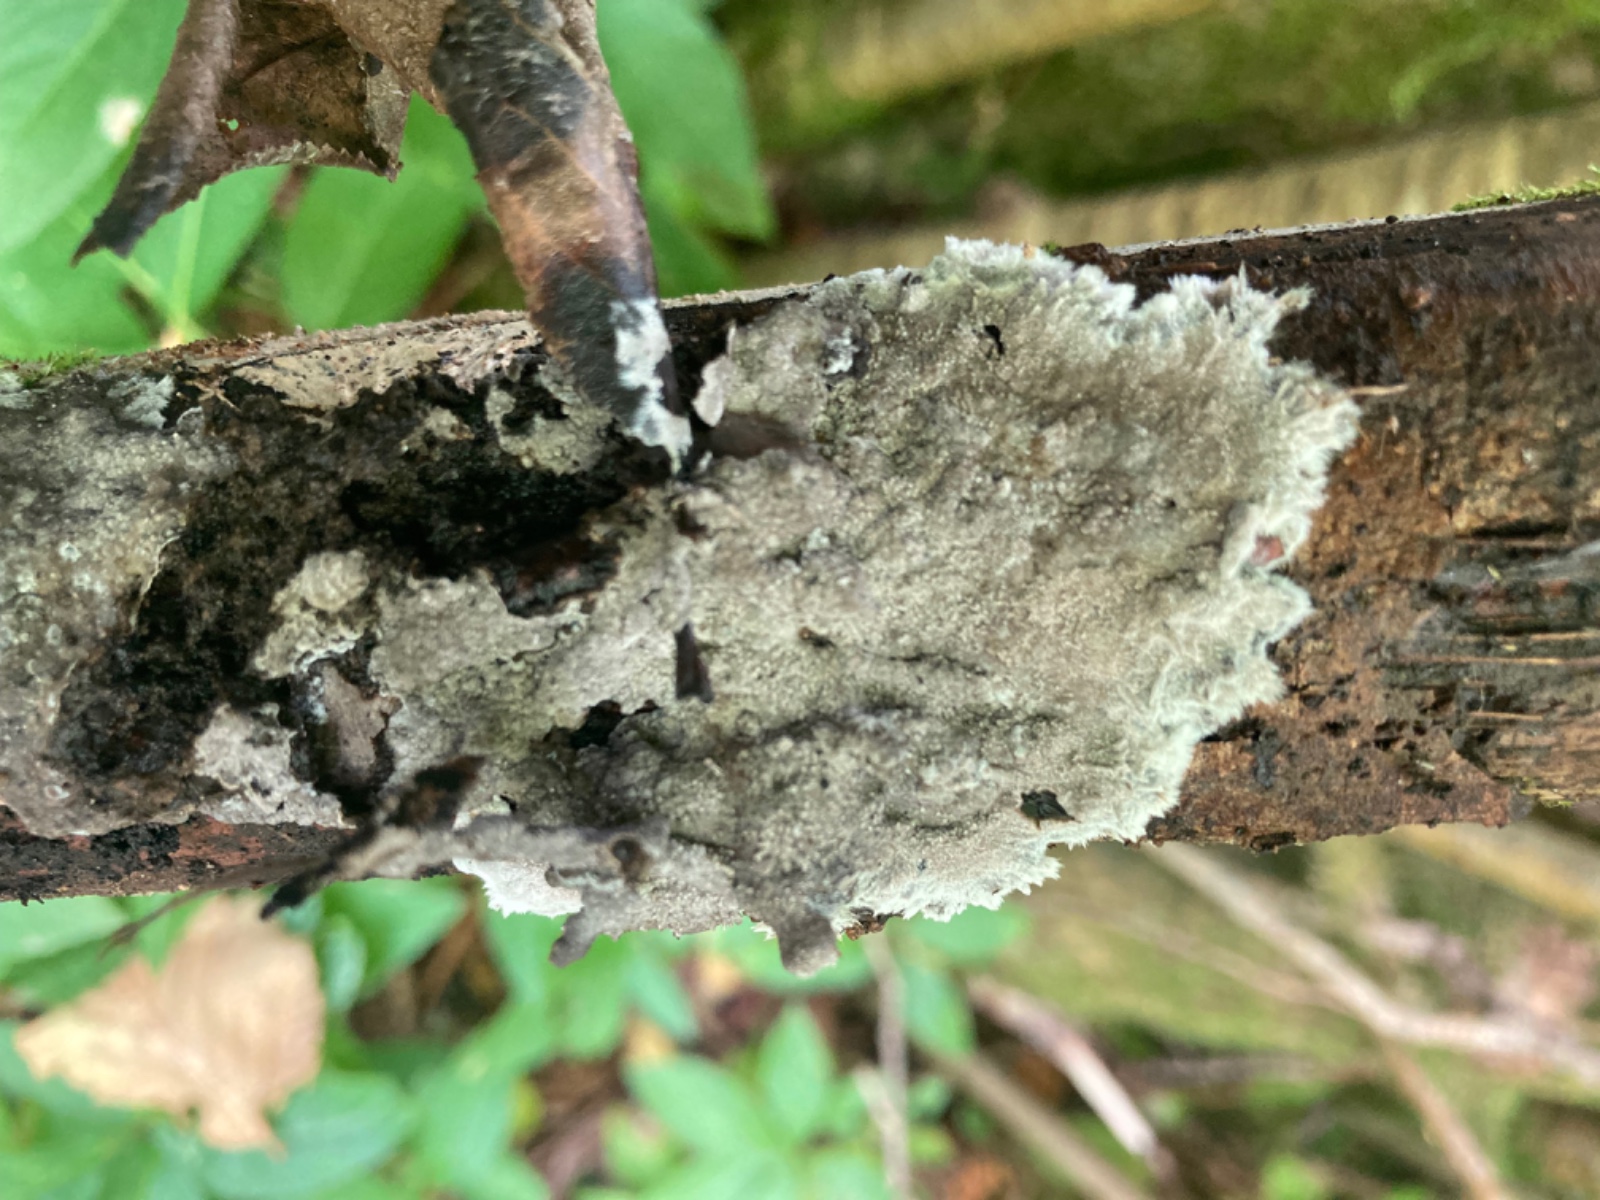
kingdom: Fungi
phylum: Basidiomycota
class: Agaricomycetes
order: Thelephorales
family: Thelephoraceae
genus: Tomentella
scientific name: Tomentella
